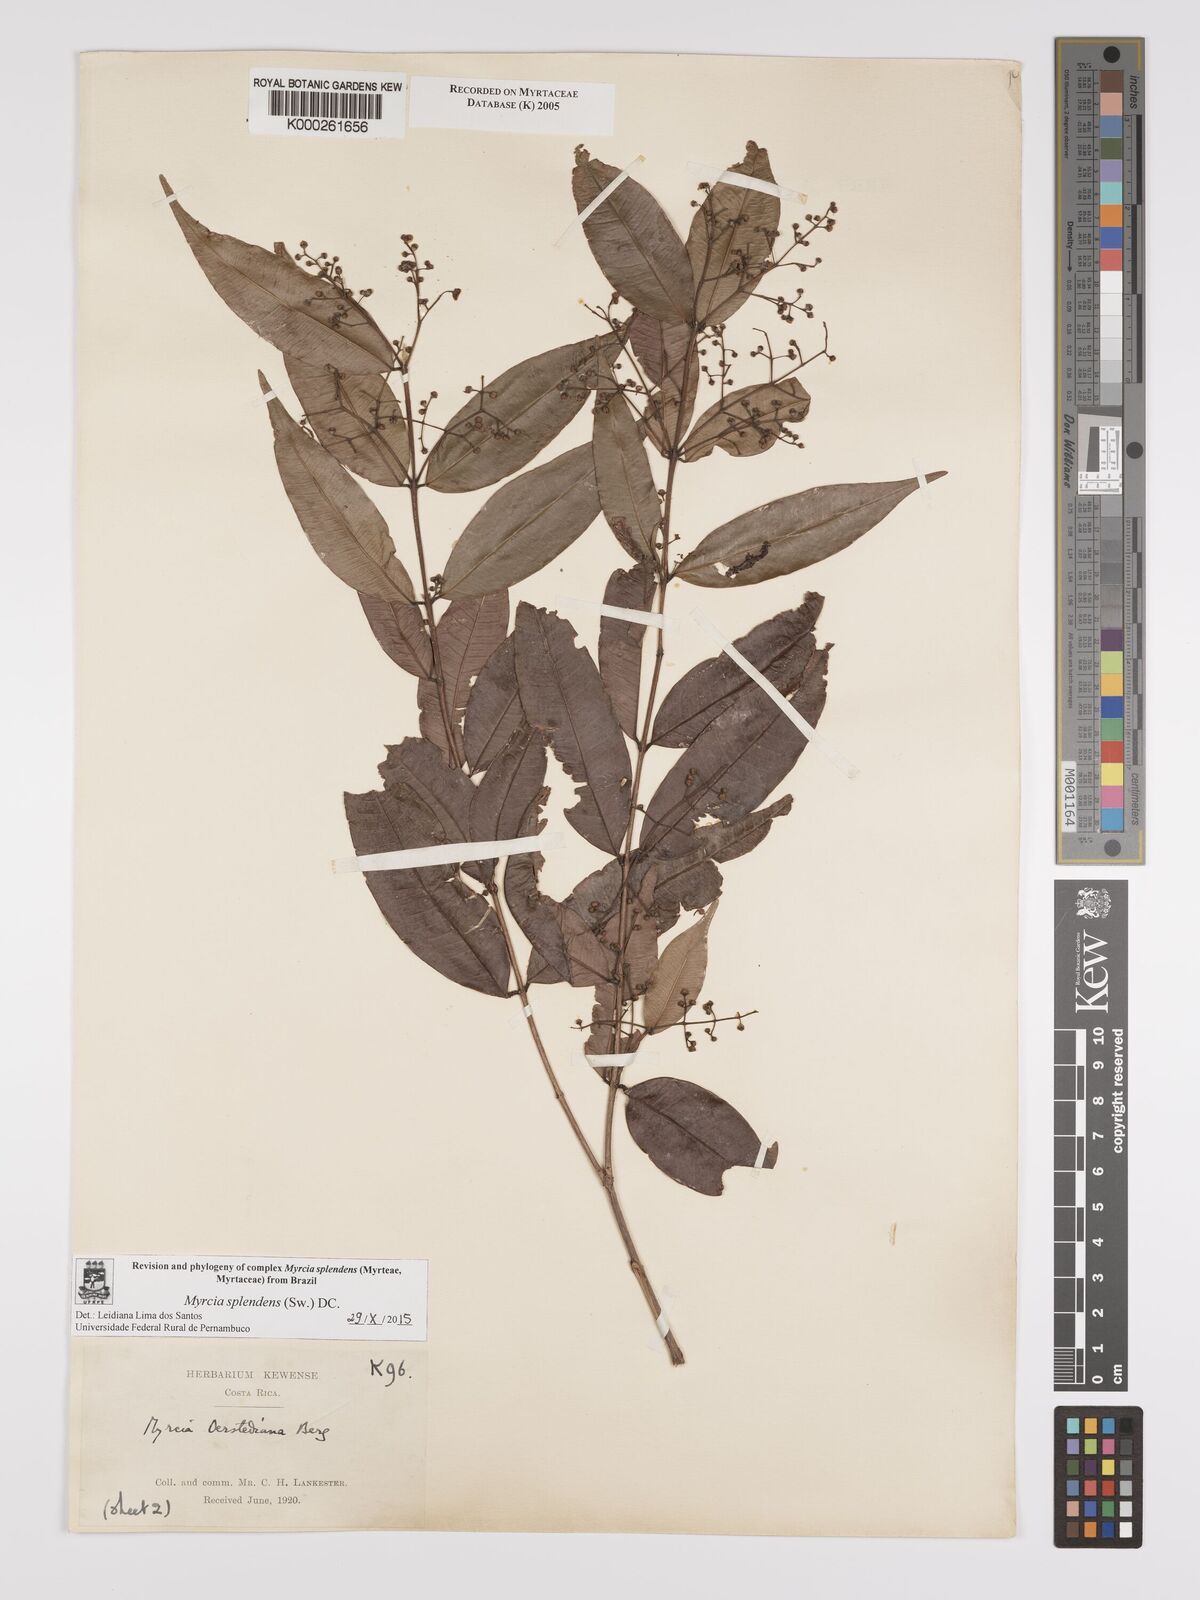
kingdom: Plantae
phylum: Tracheophyta
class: Magnoliopsida
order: Myrtales
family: Myrtaceae
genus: Myrcia
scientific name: Myrcia splendens
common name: Surinam cherry
